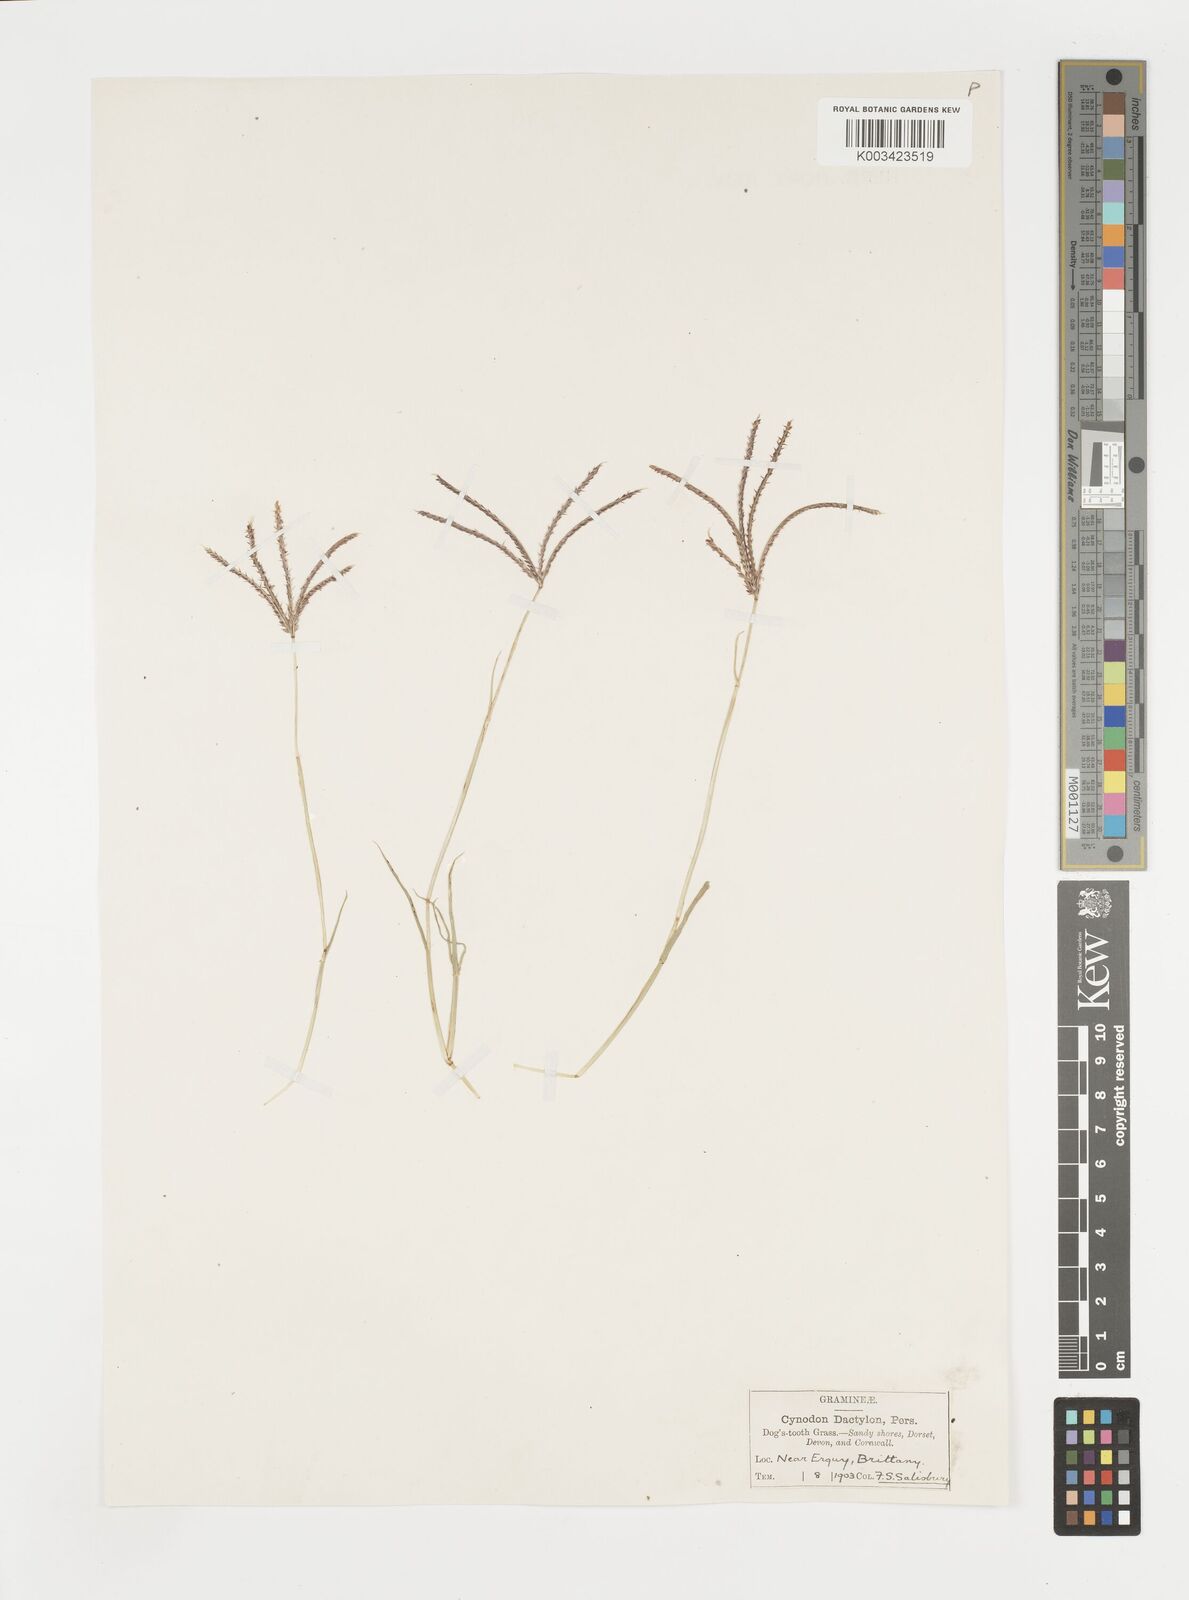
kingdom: Plantae
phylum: Tracheophyta
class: Liliopsida
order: Poales
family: Poaceae
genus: Cynodon
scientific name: Cynodon dactylon
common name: Bermuda grass
